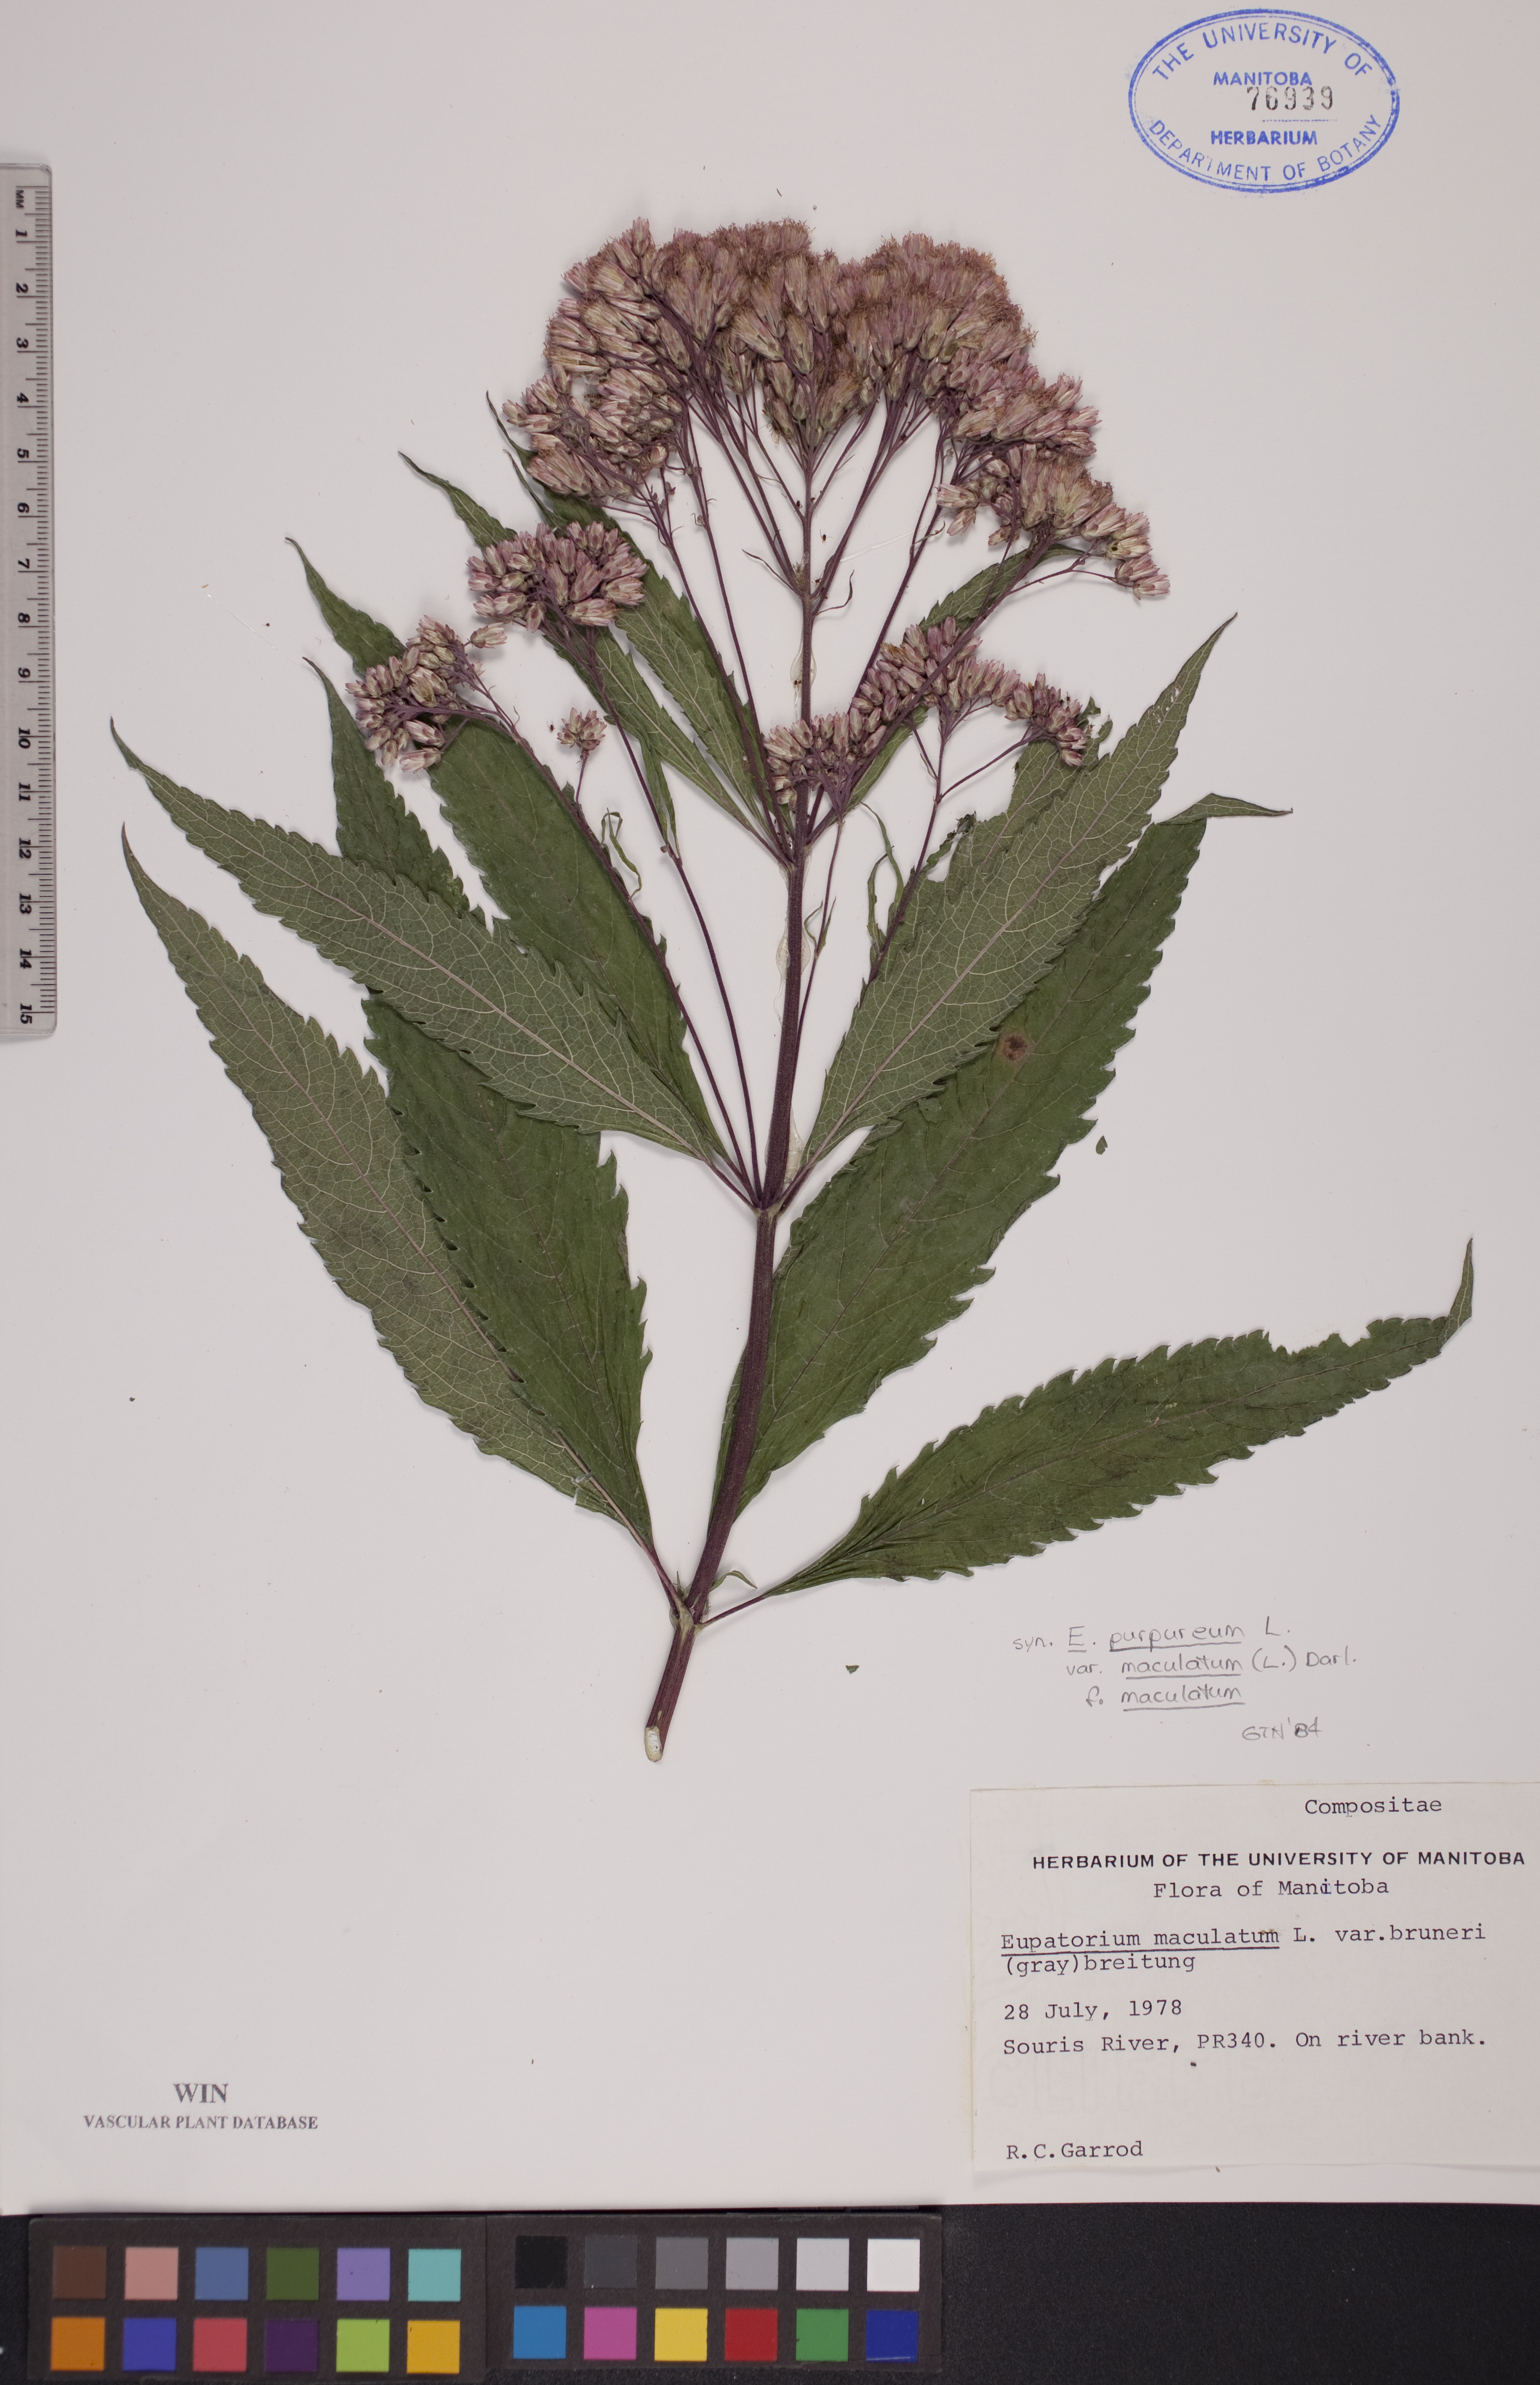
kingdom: Plantae
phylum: Tracheophyta
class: Magnoliopsida
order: Asterales
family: Asteraceae
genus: Eutrochium
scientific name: Eutrochium maculatum
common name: Spotted joe pye weed
